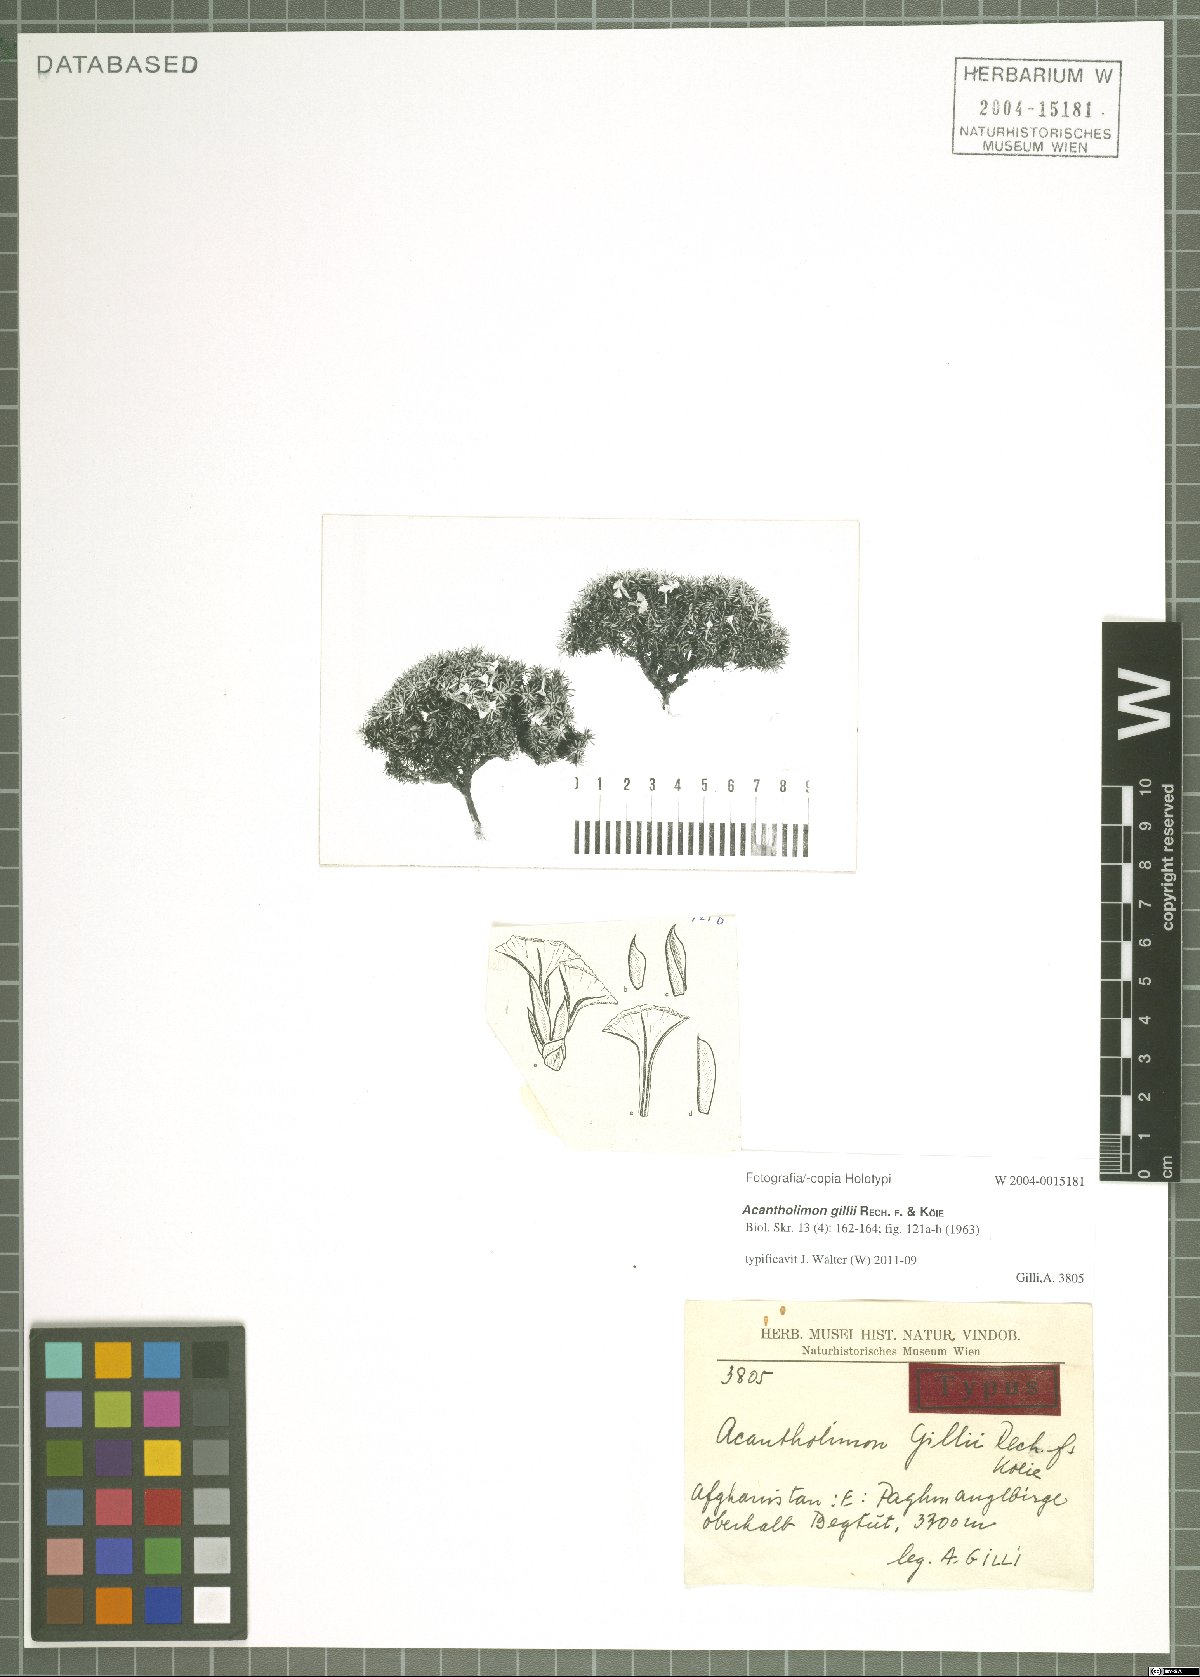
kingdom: Plantae
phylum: Tracheophyta
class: Magnoliopsida
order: Caryophyllales
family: Plumbaginaceae
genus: Acantholimon
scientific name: Acantholimon gillii
